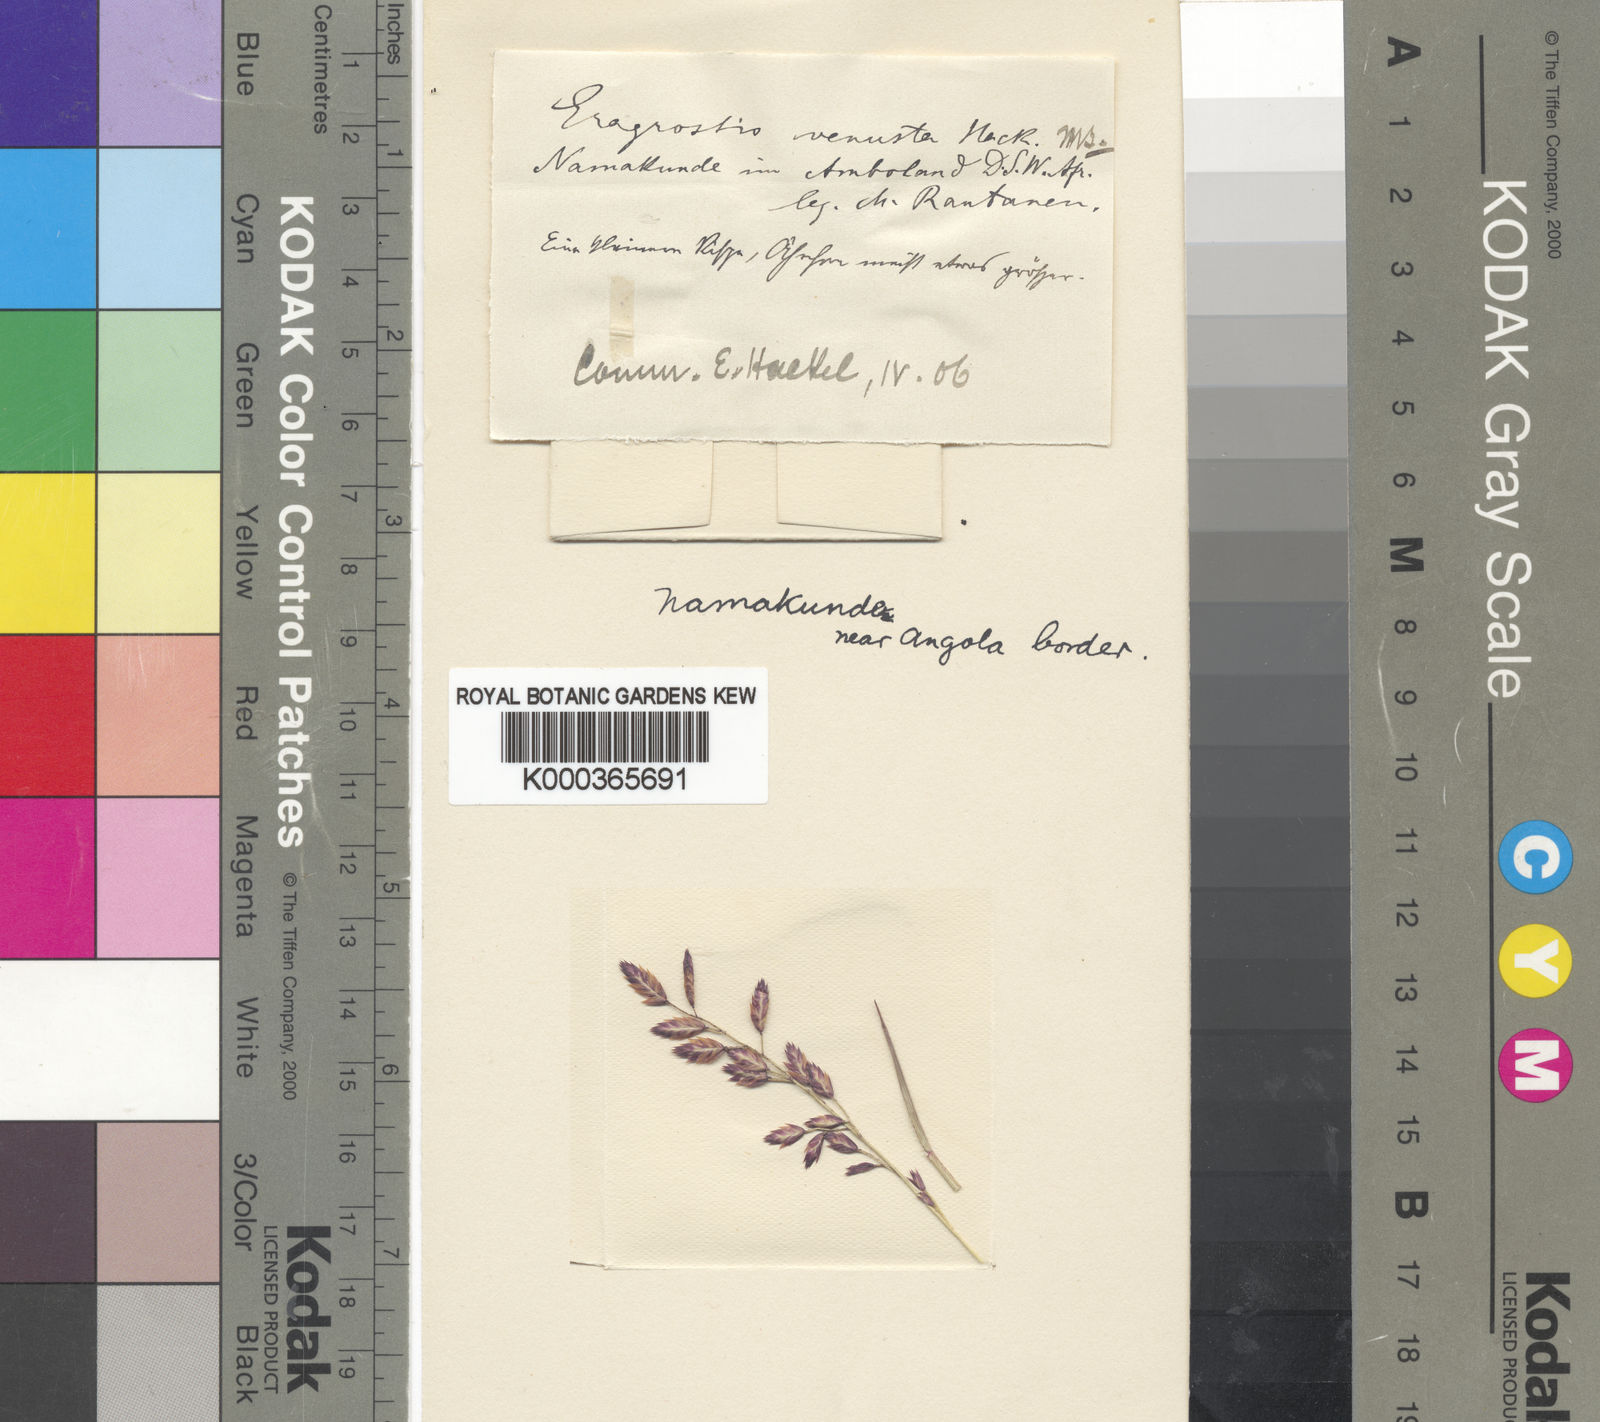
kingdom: Plantae
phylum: Tracheophyta
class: Liliopsida
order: Poales
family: Poaceae
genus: Eragrostis
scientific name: Eragrostis dinteri
